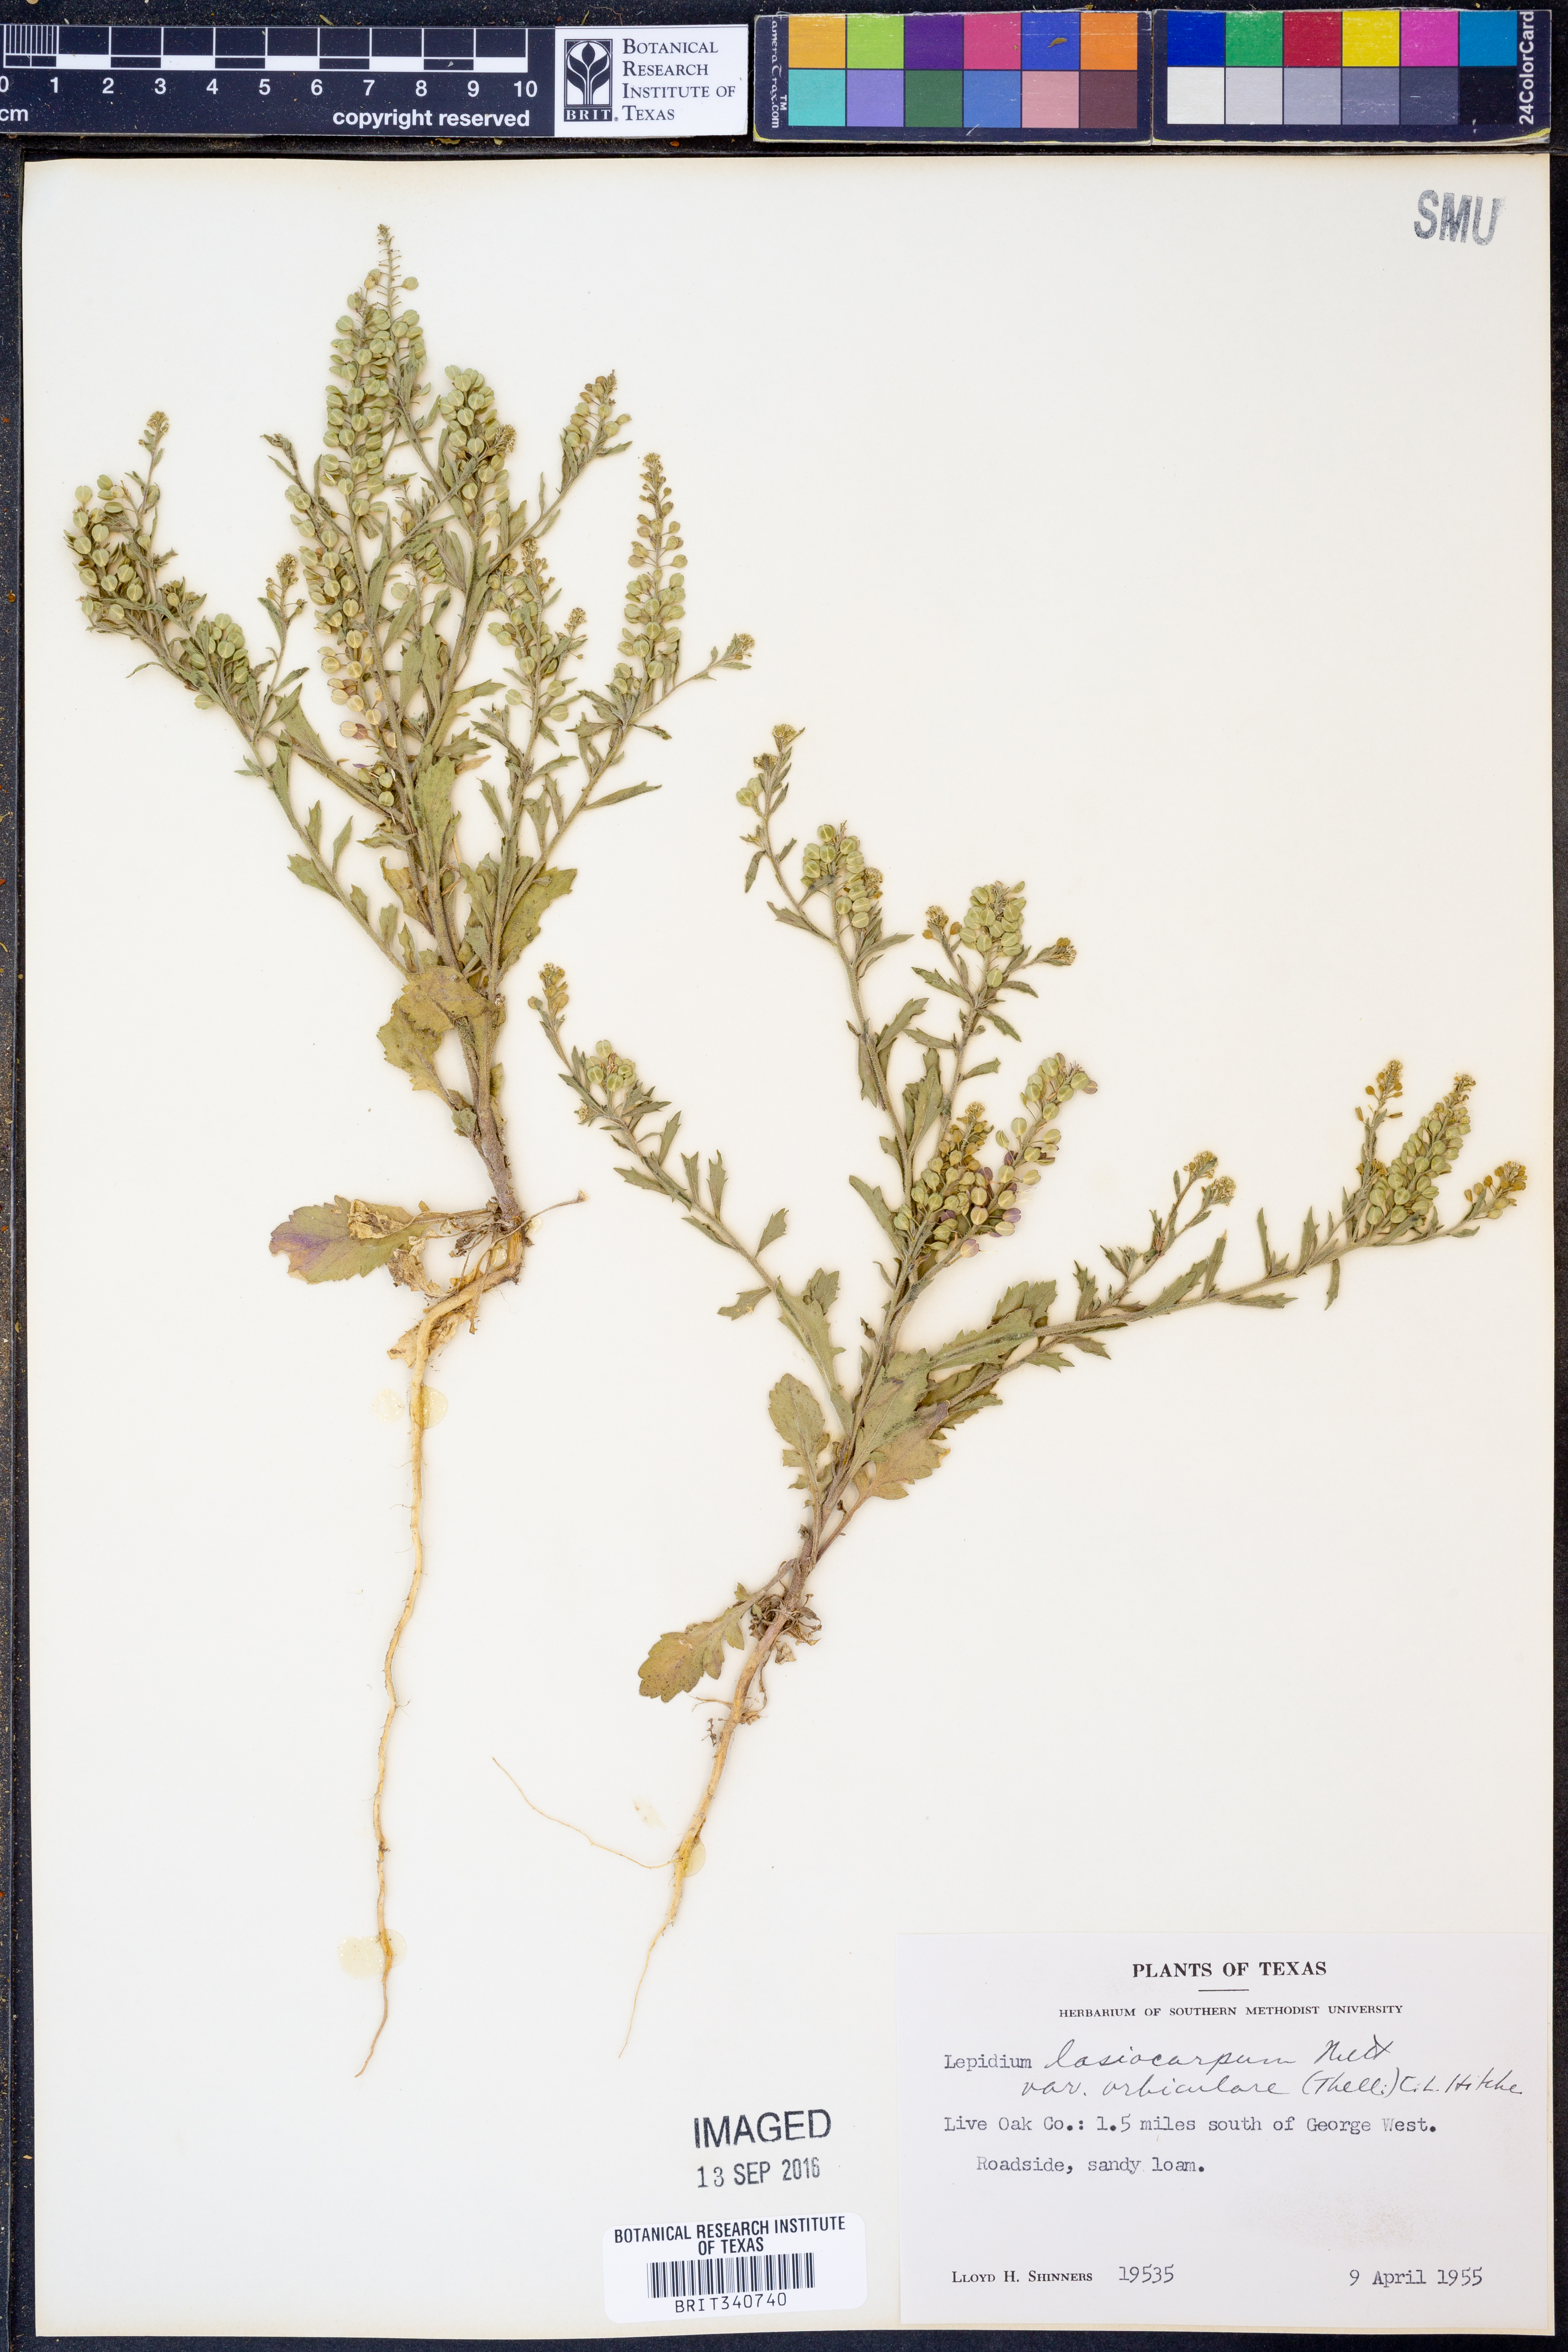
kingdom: Plantae
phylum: Tracheophyta
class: Magnoliopsida
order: Brassicales
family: Brassicaceae
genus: Lepidium
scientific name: Lepidium austrinum
